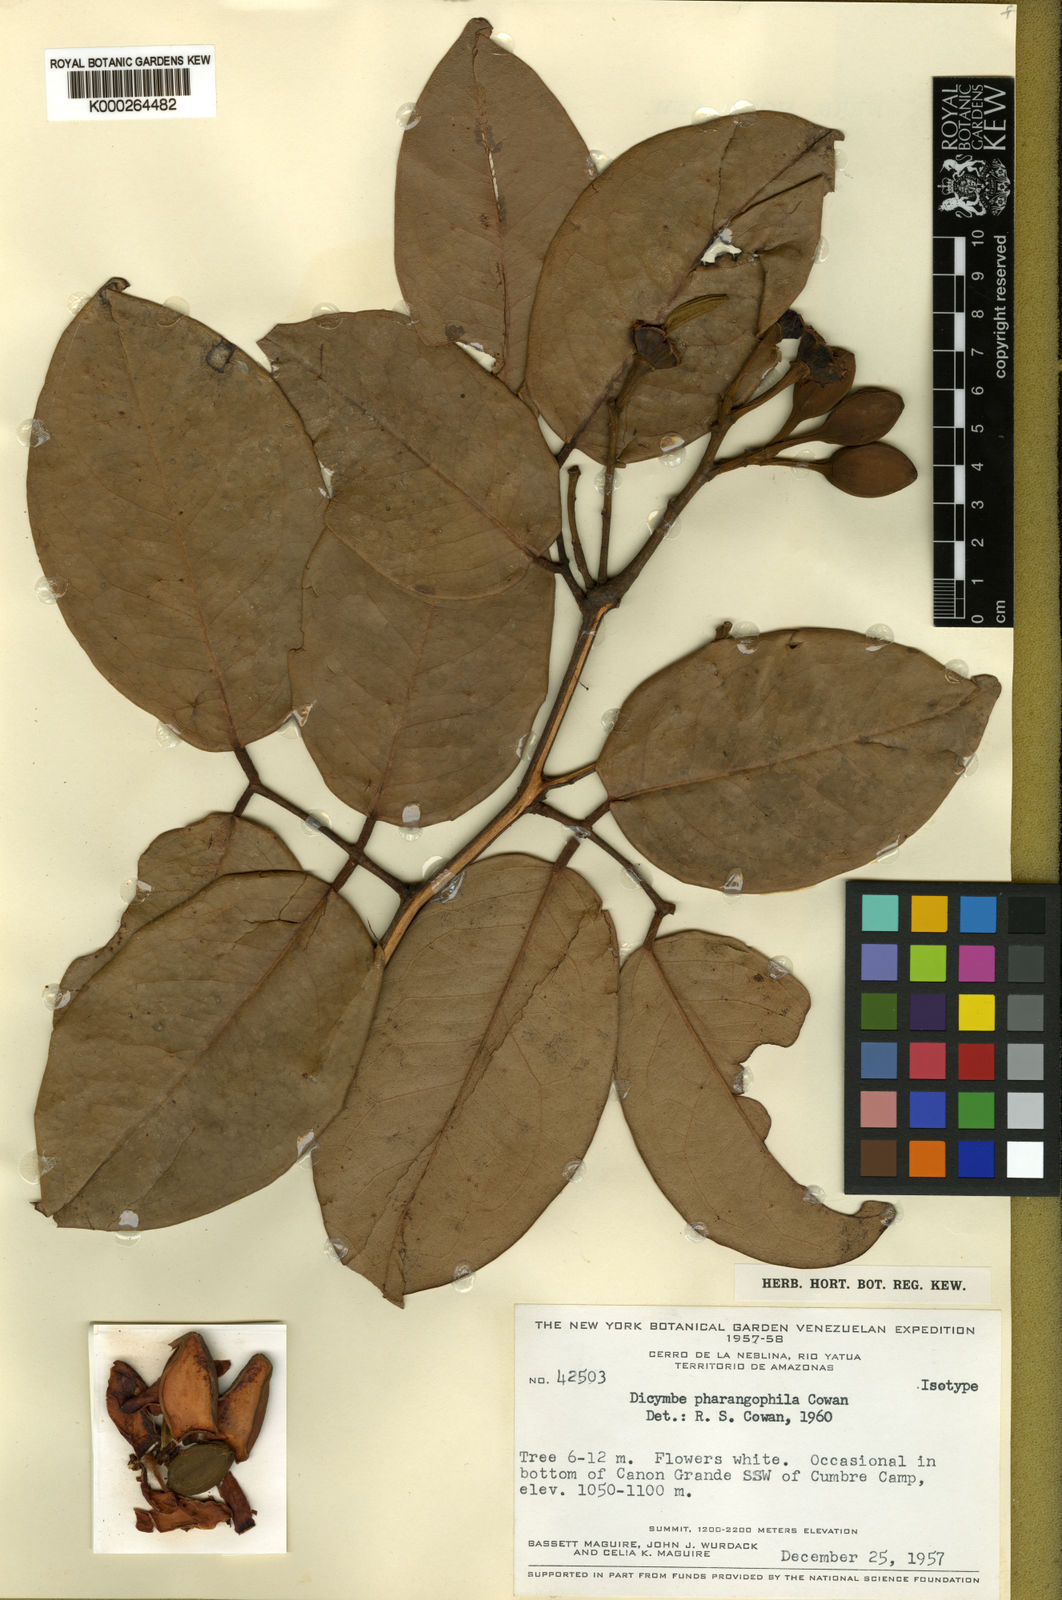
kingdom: Plantae
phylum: Tracheophyta
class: Magnoliopsida
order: Fabales
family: Fabaceae
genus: Dicymbe
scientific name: Dicymbe pharangophila
